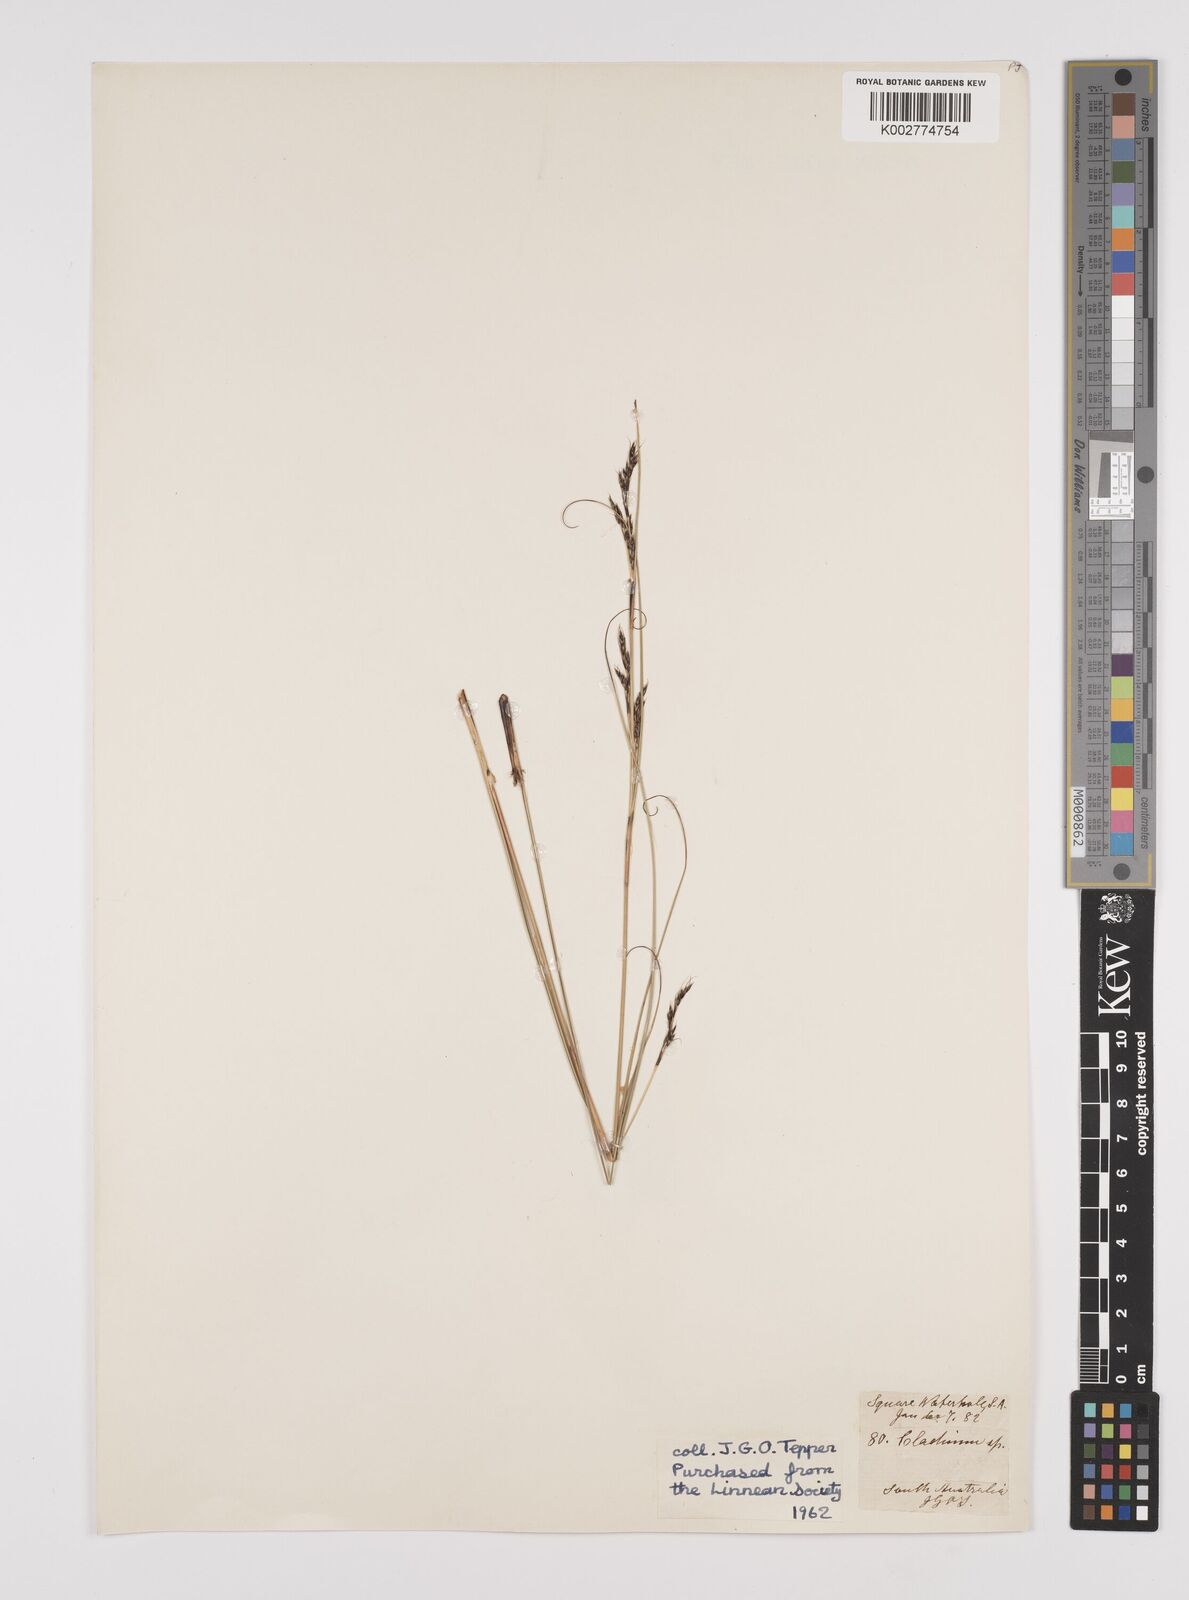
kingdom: Plantae
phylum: Tracheophyta
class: Liliopsida
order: Poales
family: Cyperaceae
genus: Gahnia
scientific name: Gahnia
